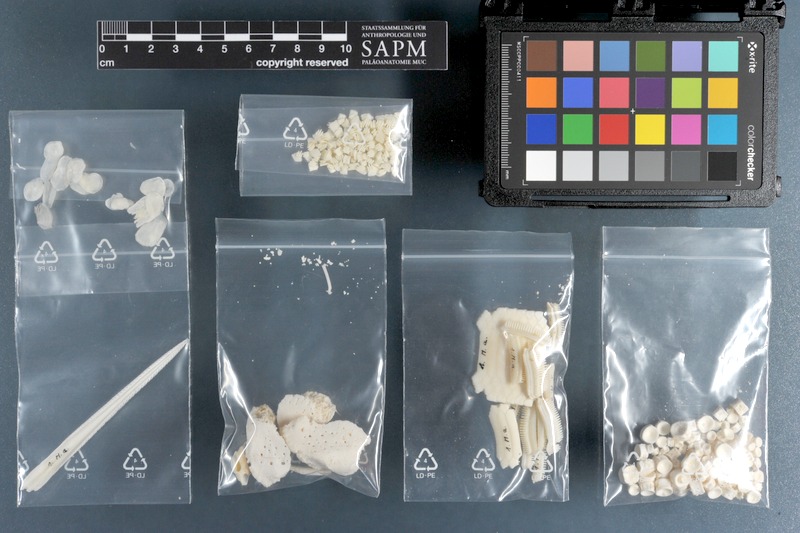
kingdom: Animalia
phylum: Chordata
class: Elasmobranchii
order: Myliobatiformes
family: Myliobatidae
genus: Myliobatis
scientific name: Myliobatis aquila
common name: Eagle ray
